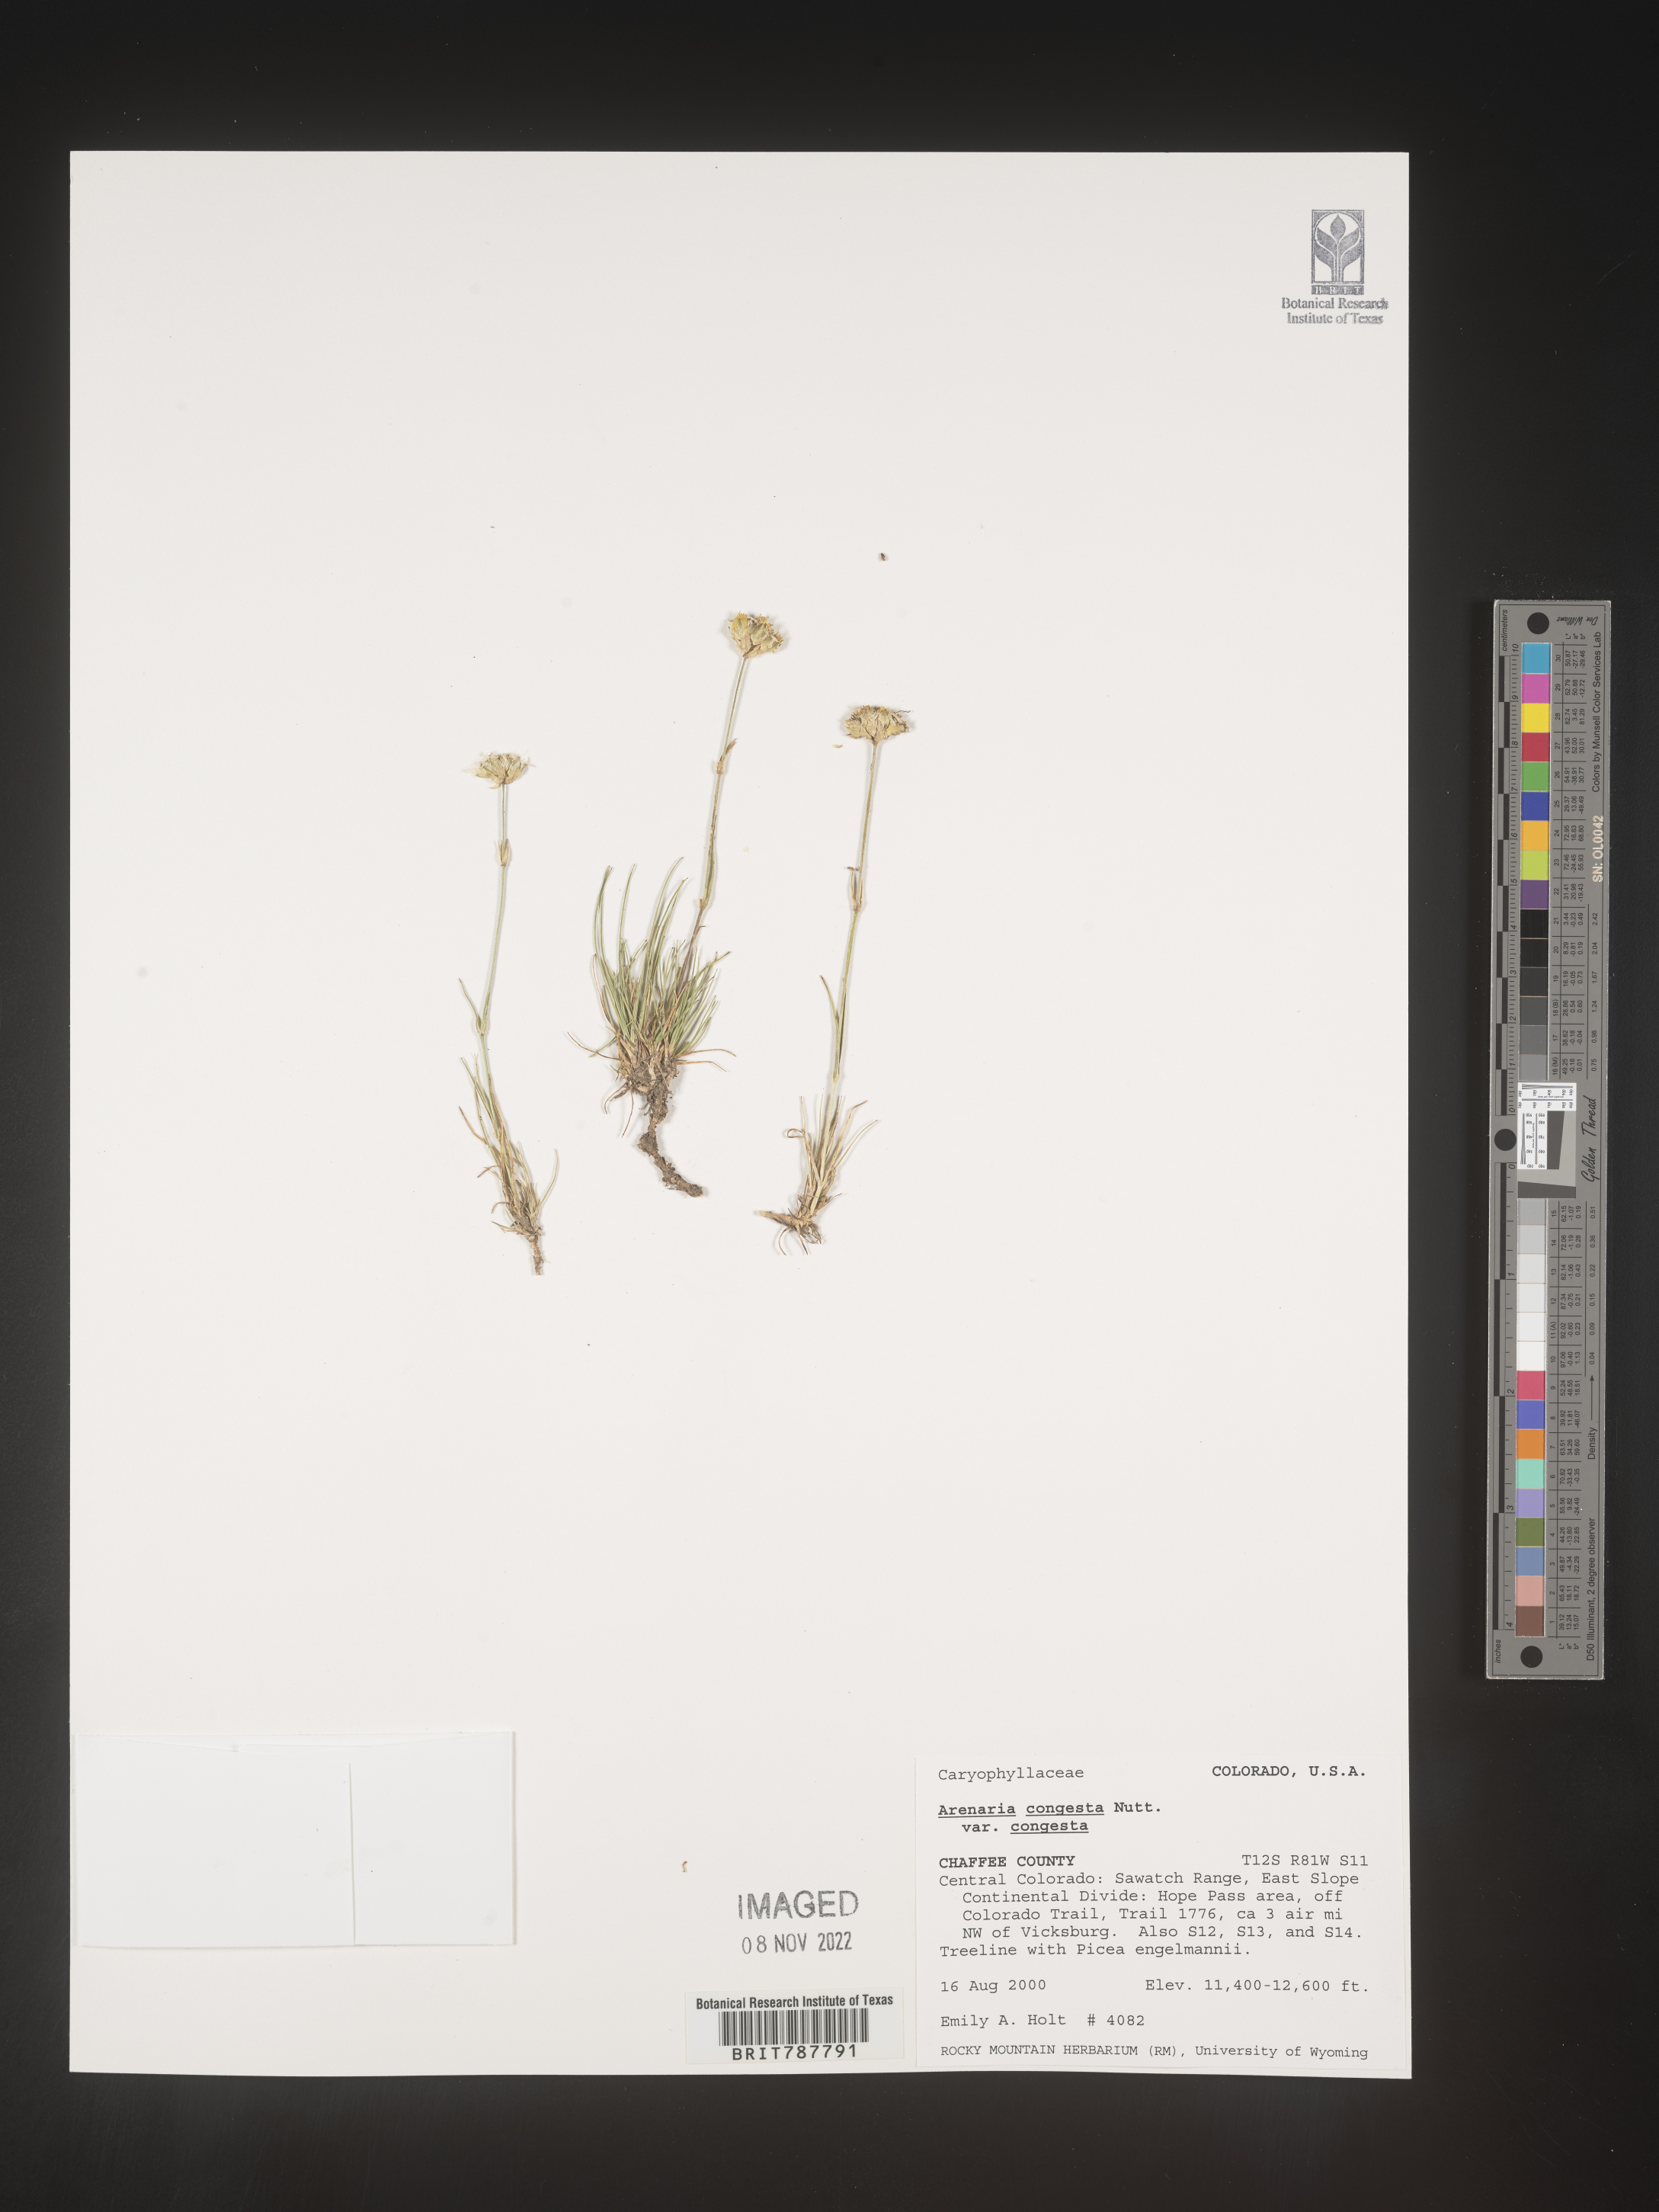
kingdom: Plantae
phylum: Tracheophyta
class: Magnoliopsida
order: Caryophyllales
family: Caryophyllaceae
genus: Eremogone
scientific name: Eremogone congesta
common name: Ballhead sandwort
